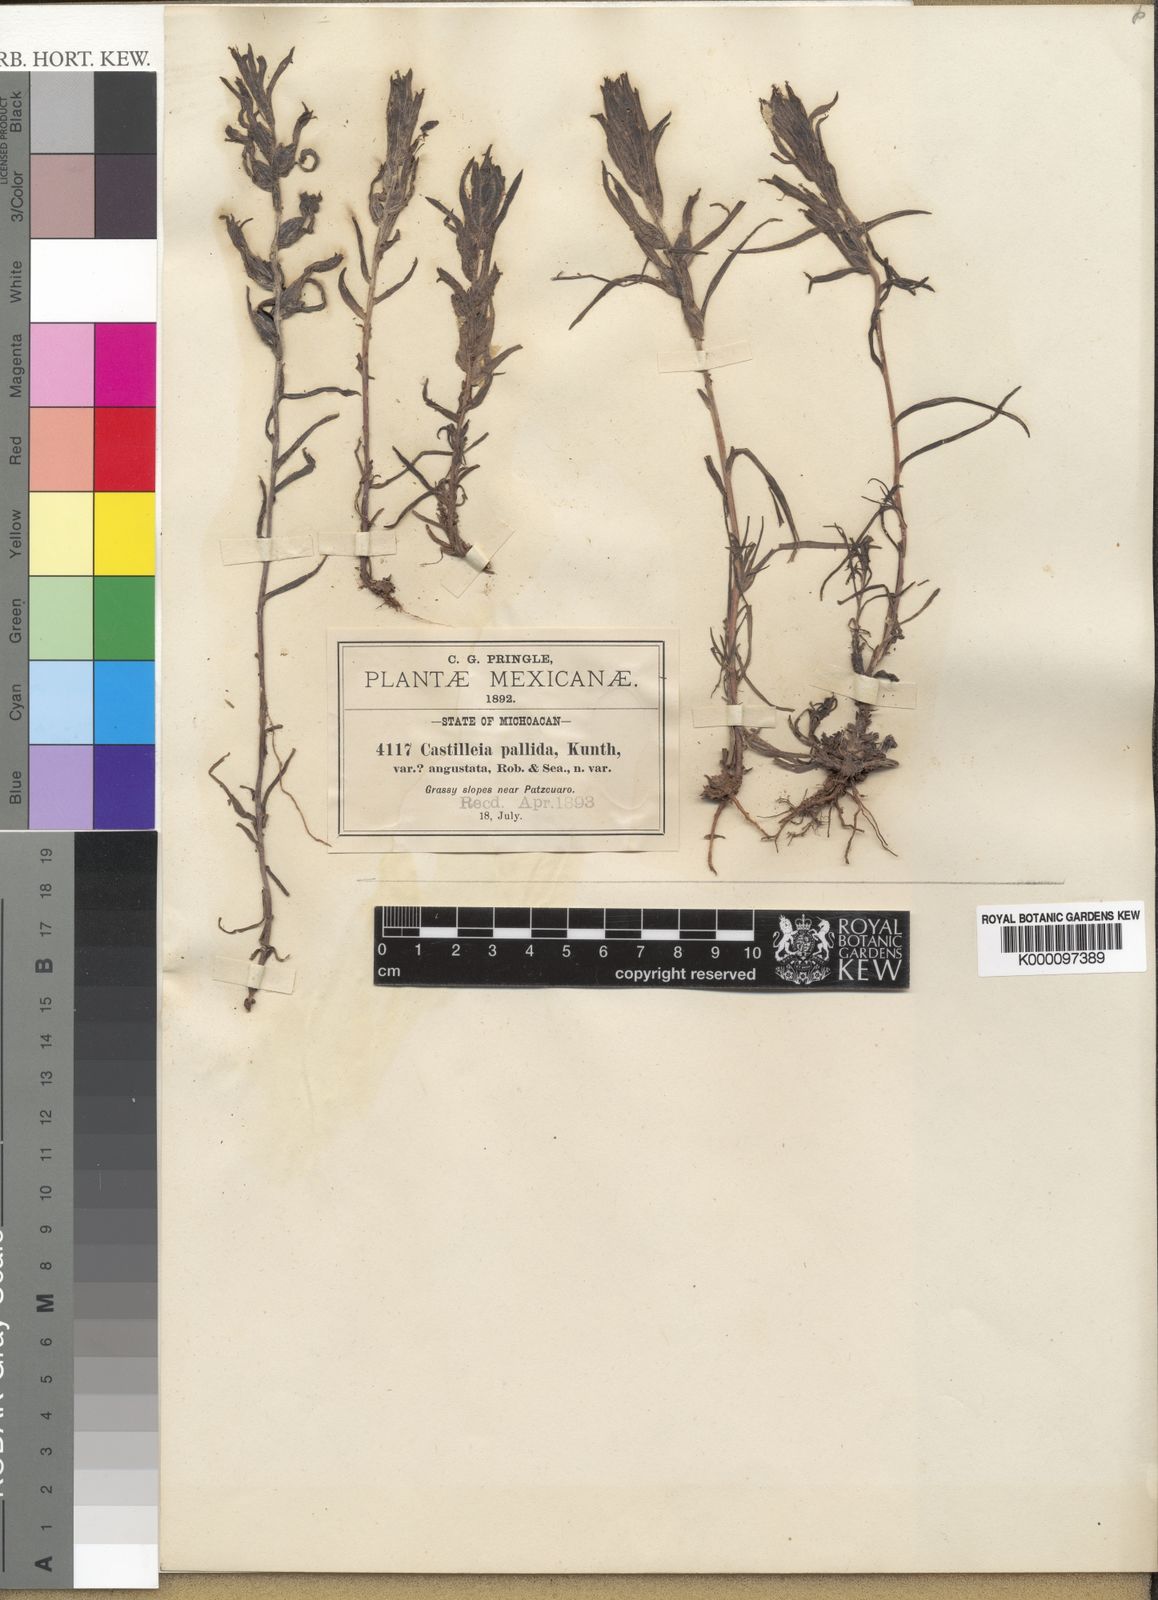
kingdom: Plantae
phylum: Tracheophyta
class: Magnoliopsida
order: Lamiales
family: Orobanchaceae
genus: Castilleja
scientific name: Castilleja angustata
